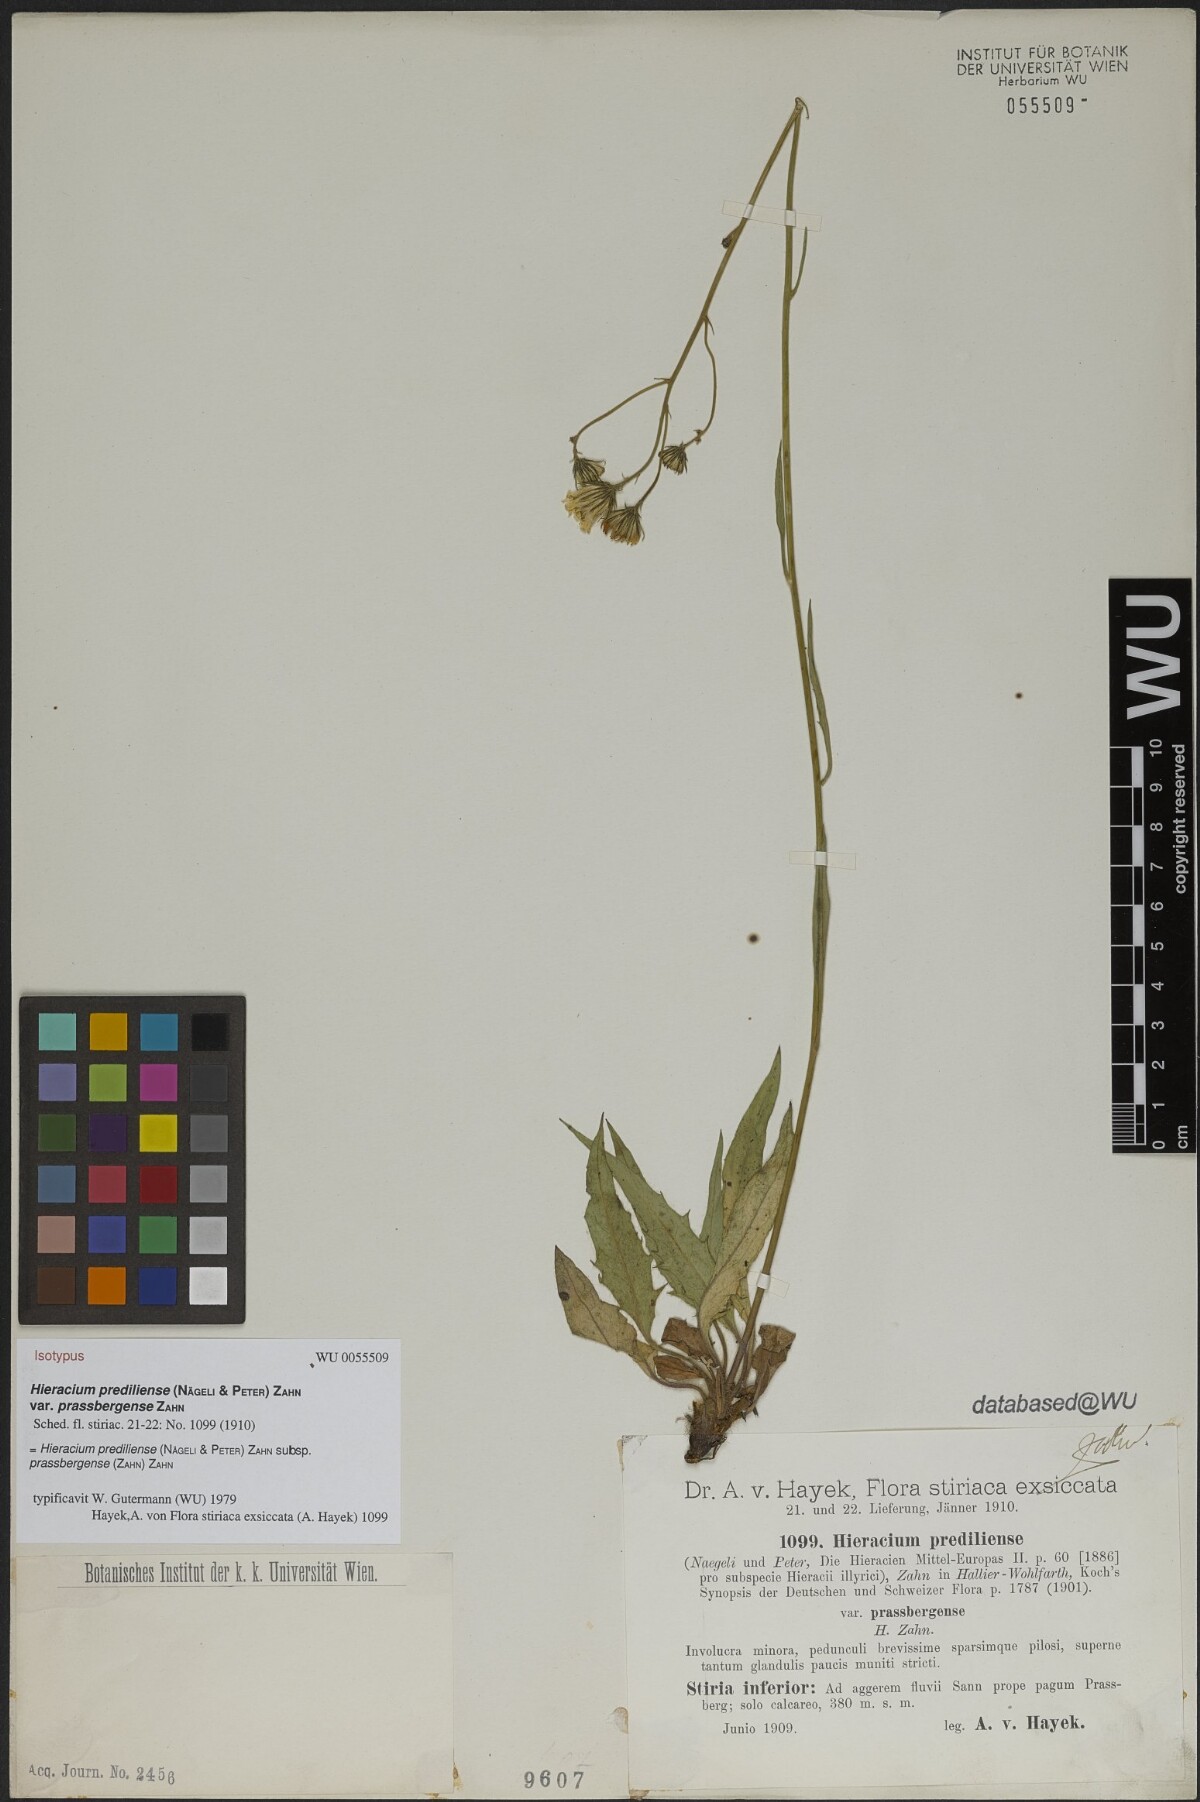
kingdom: Plantae
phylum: Tracheophyta
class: Magnoliopsida
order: Asterales
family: Asteraceae
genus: Hieracium
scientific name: Hieracium prediliense
